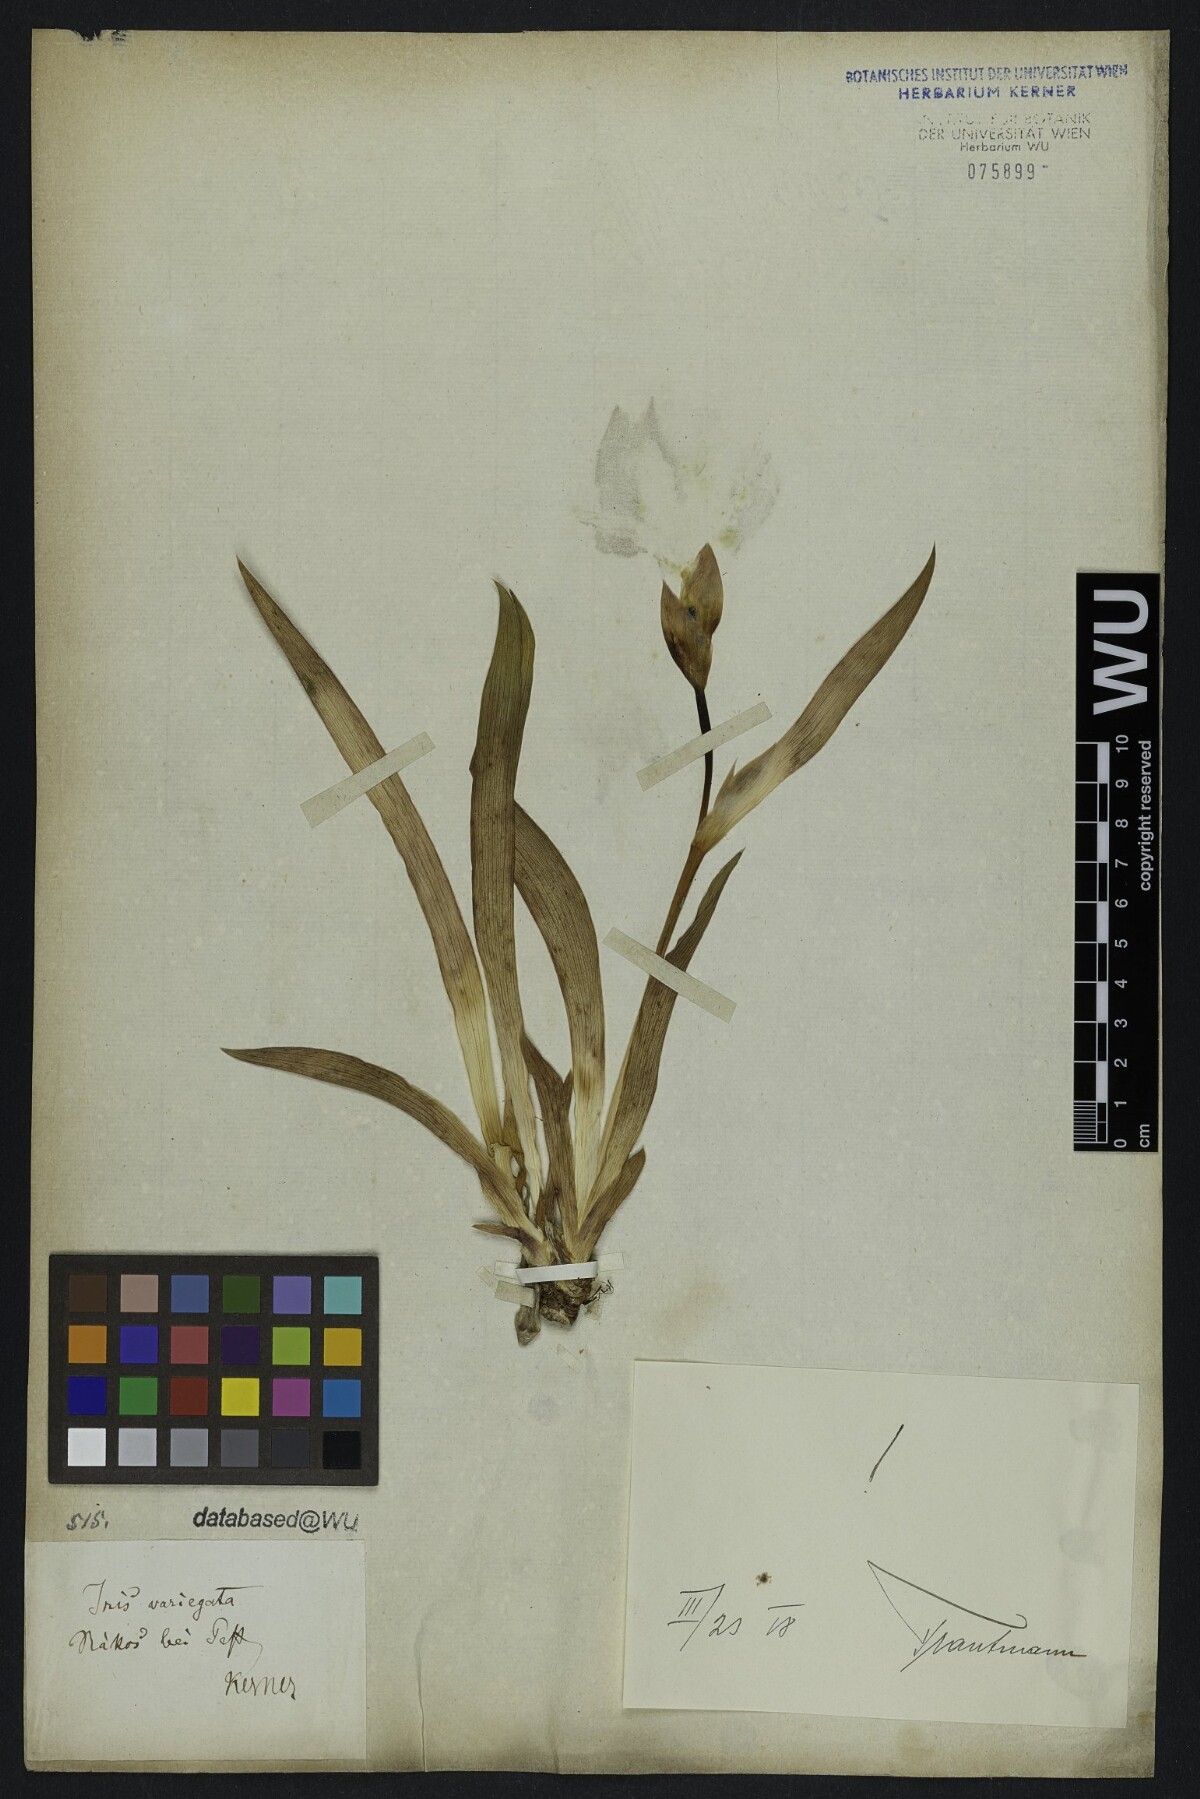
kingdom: Plantae
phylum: Tracheophyta
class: Liliopsida
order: Asparagales
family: Iridaceae
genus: Iris
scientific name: Iris variegata
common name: Hungarian iris
